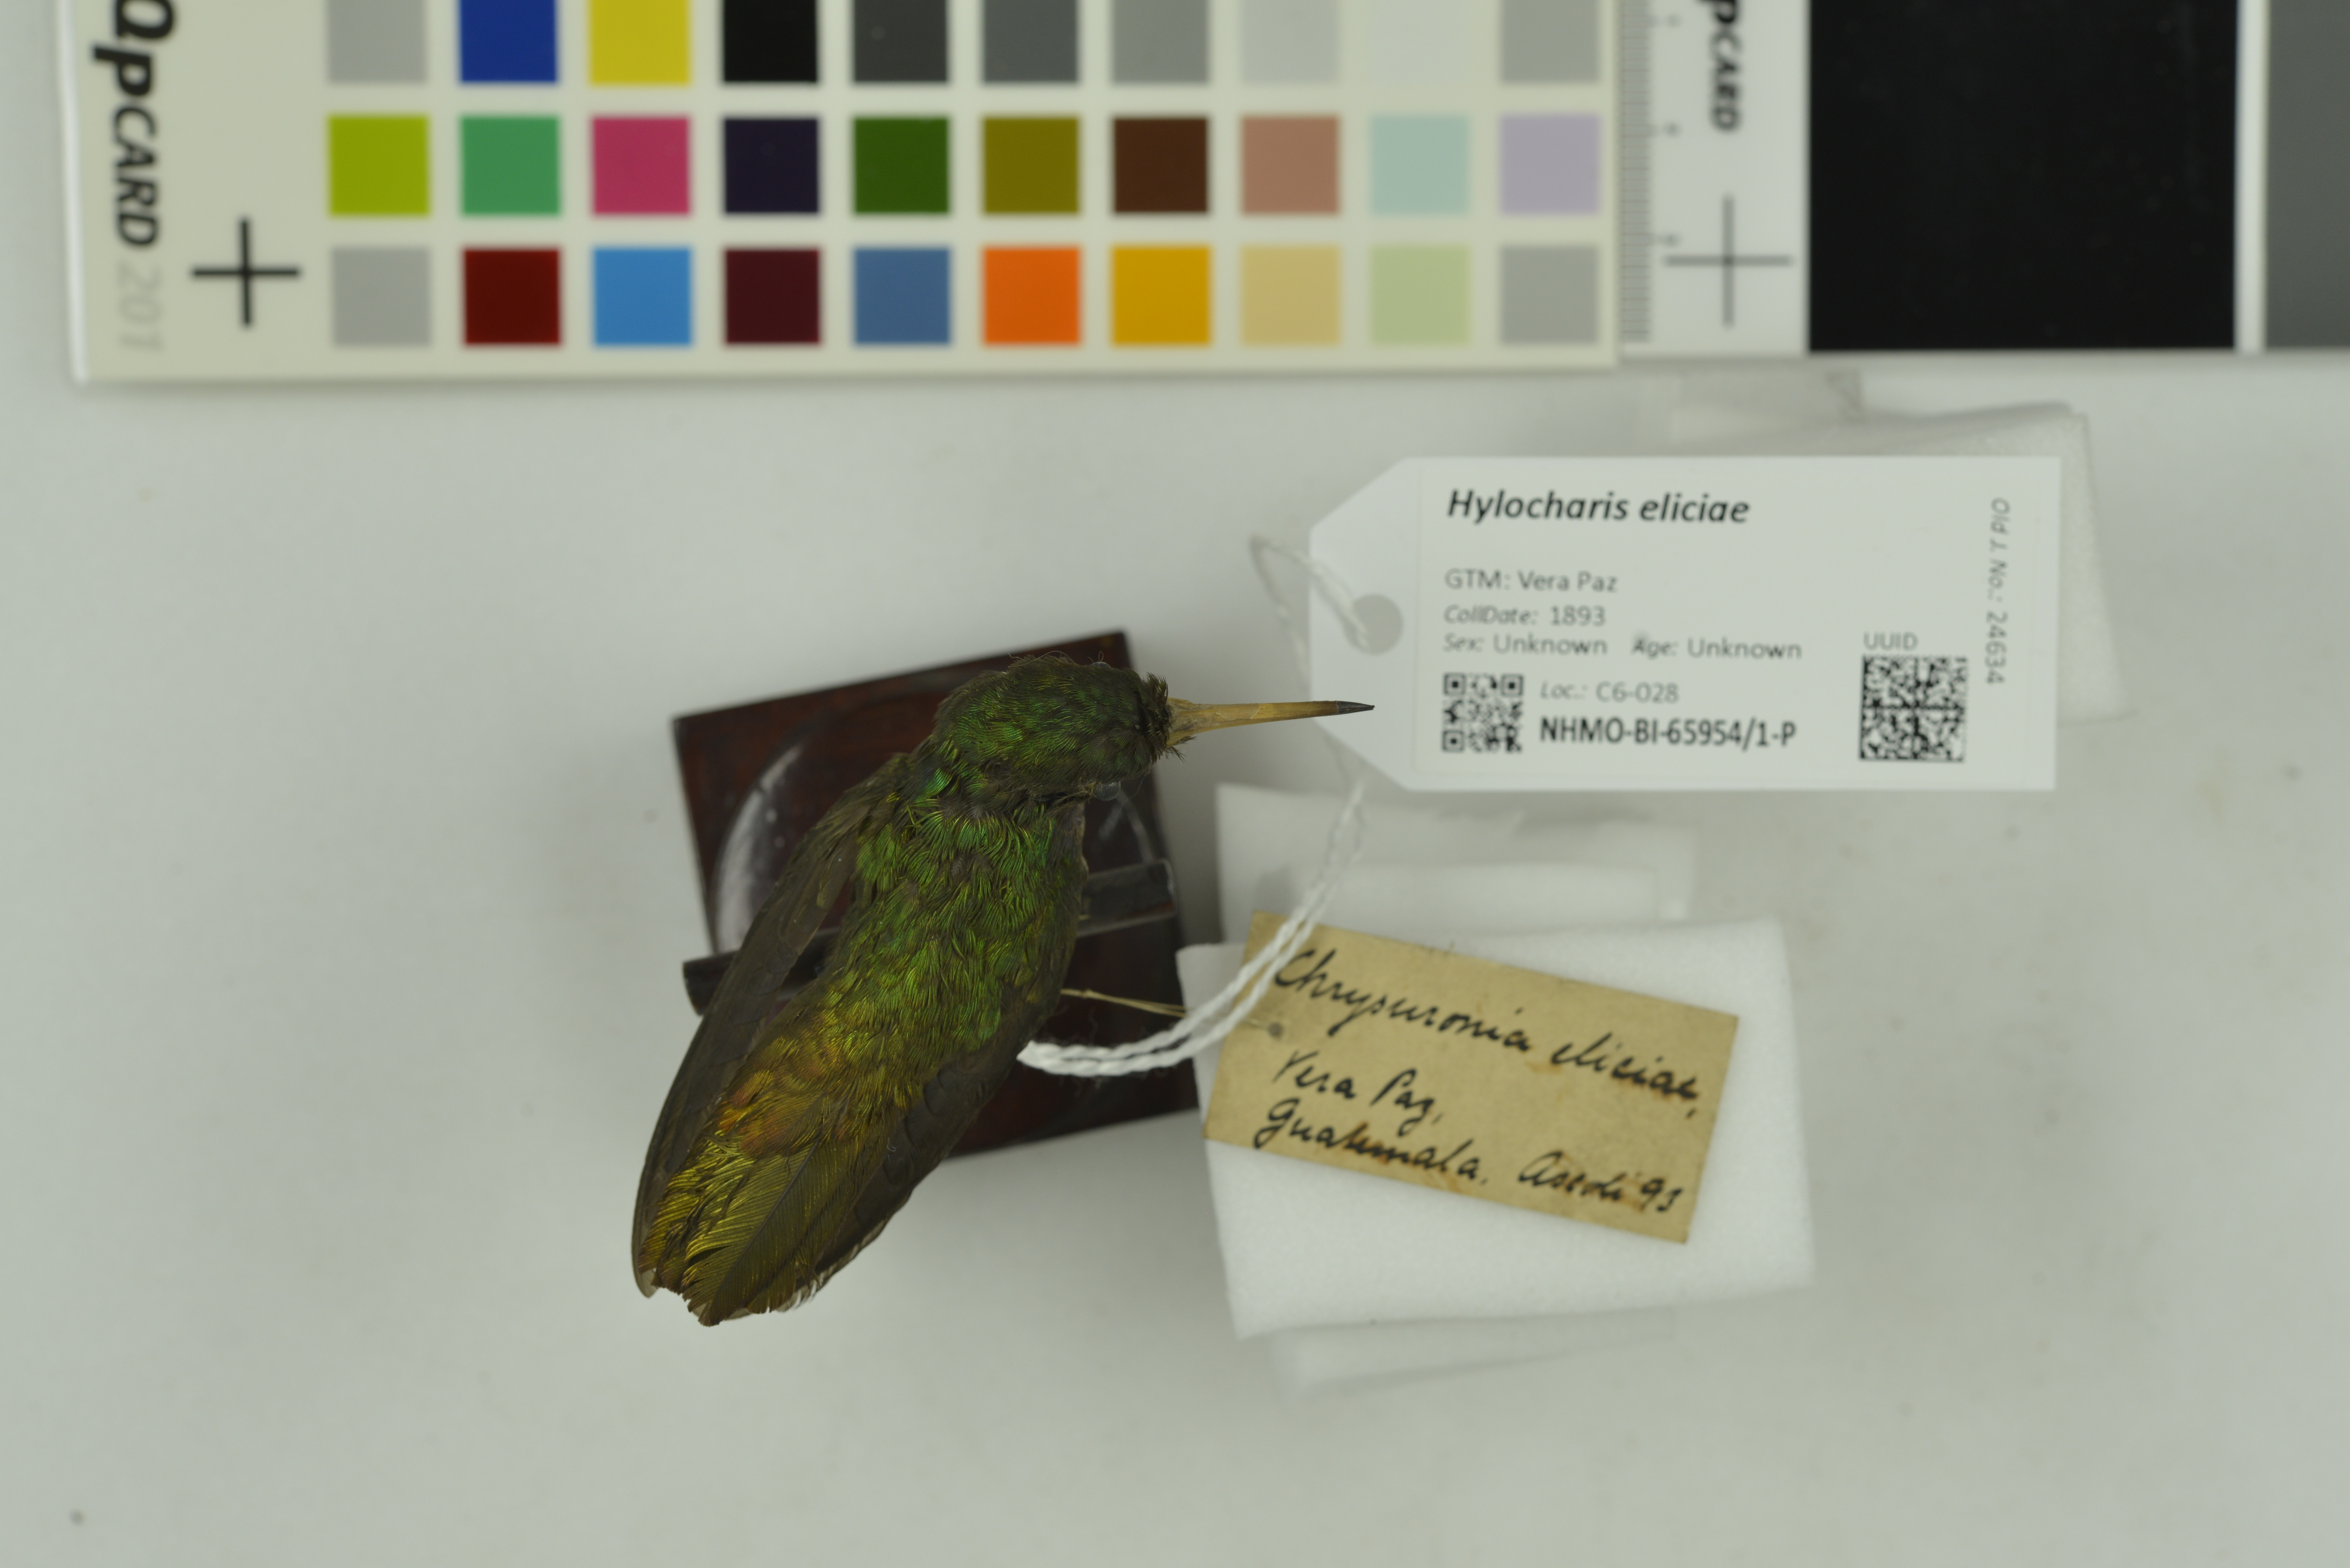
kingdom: Animalia
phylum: Chordata
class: Aves
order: Apodiformes
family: Trochilidae
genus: Chlorestes
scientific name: Chlorestes eliciae
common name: Blue-throated sapphire
